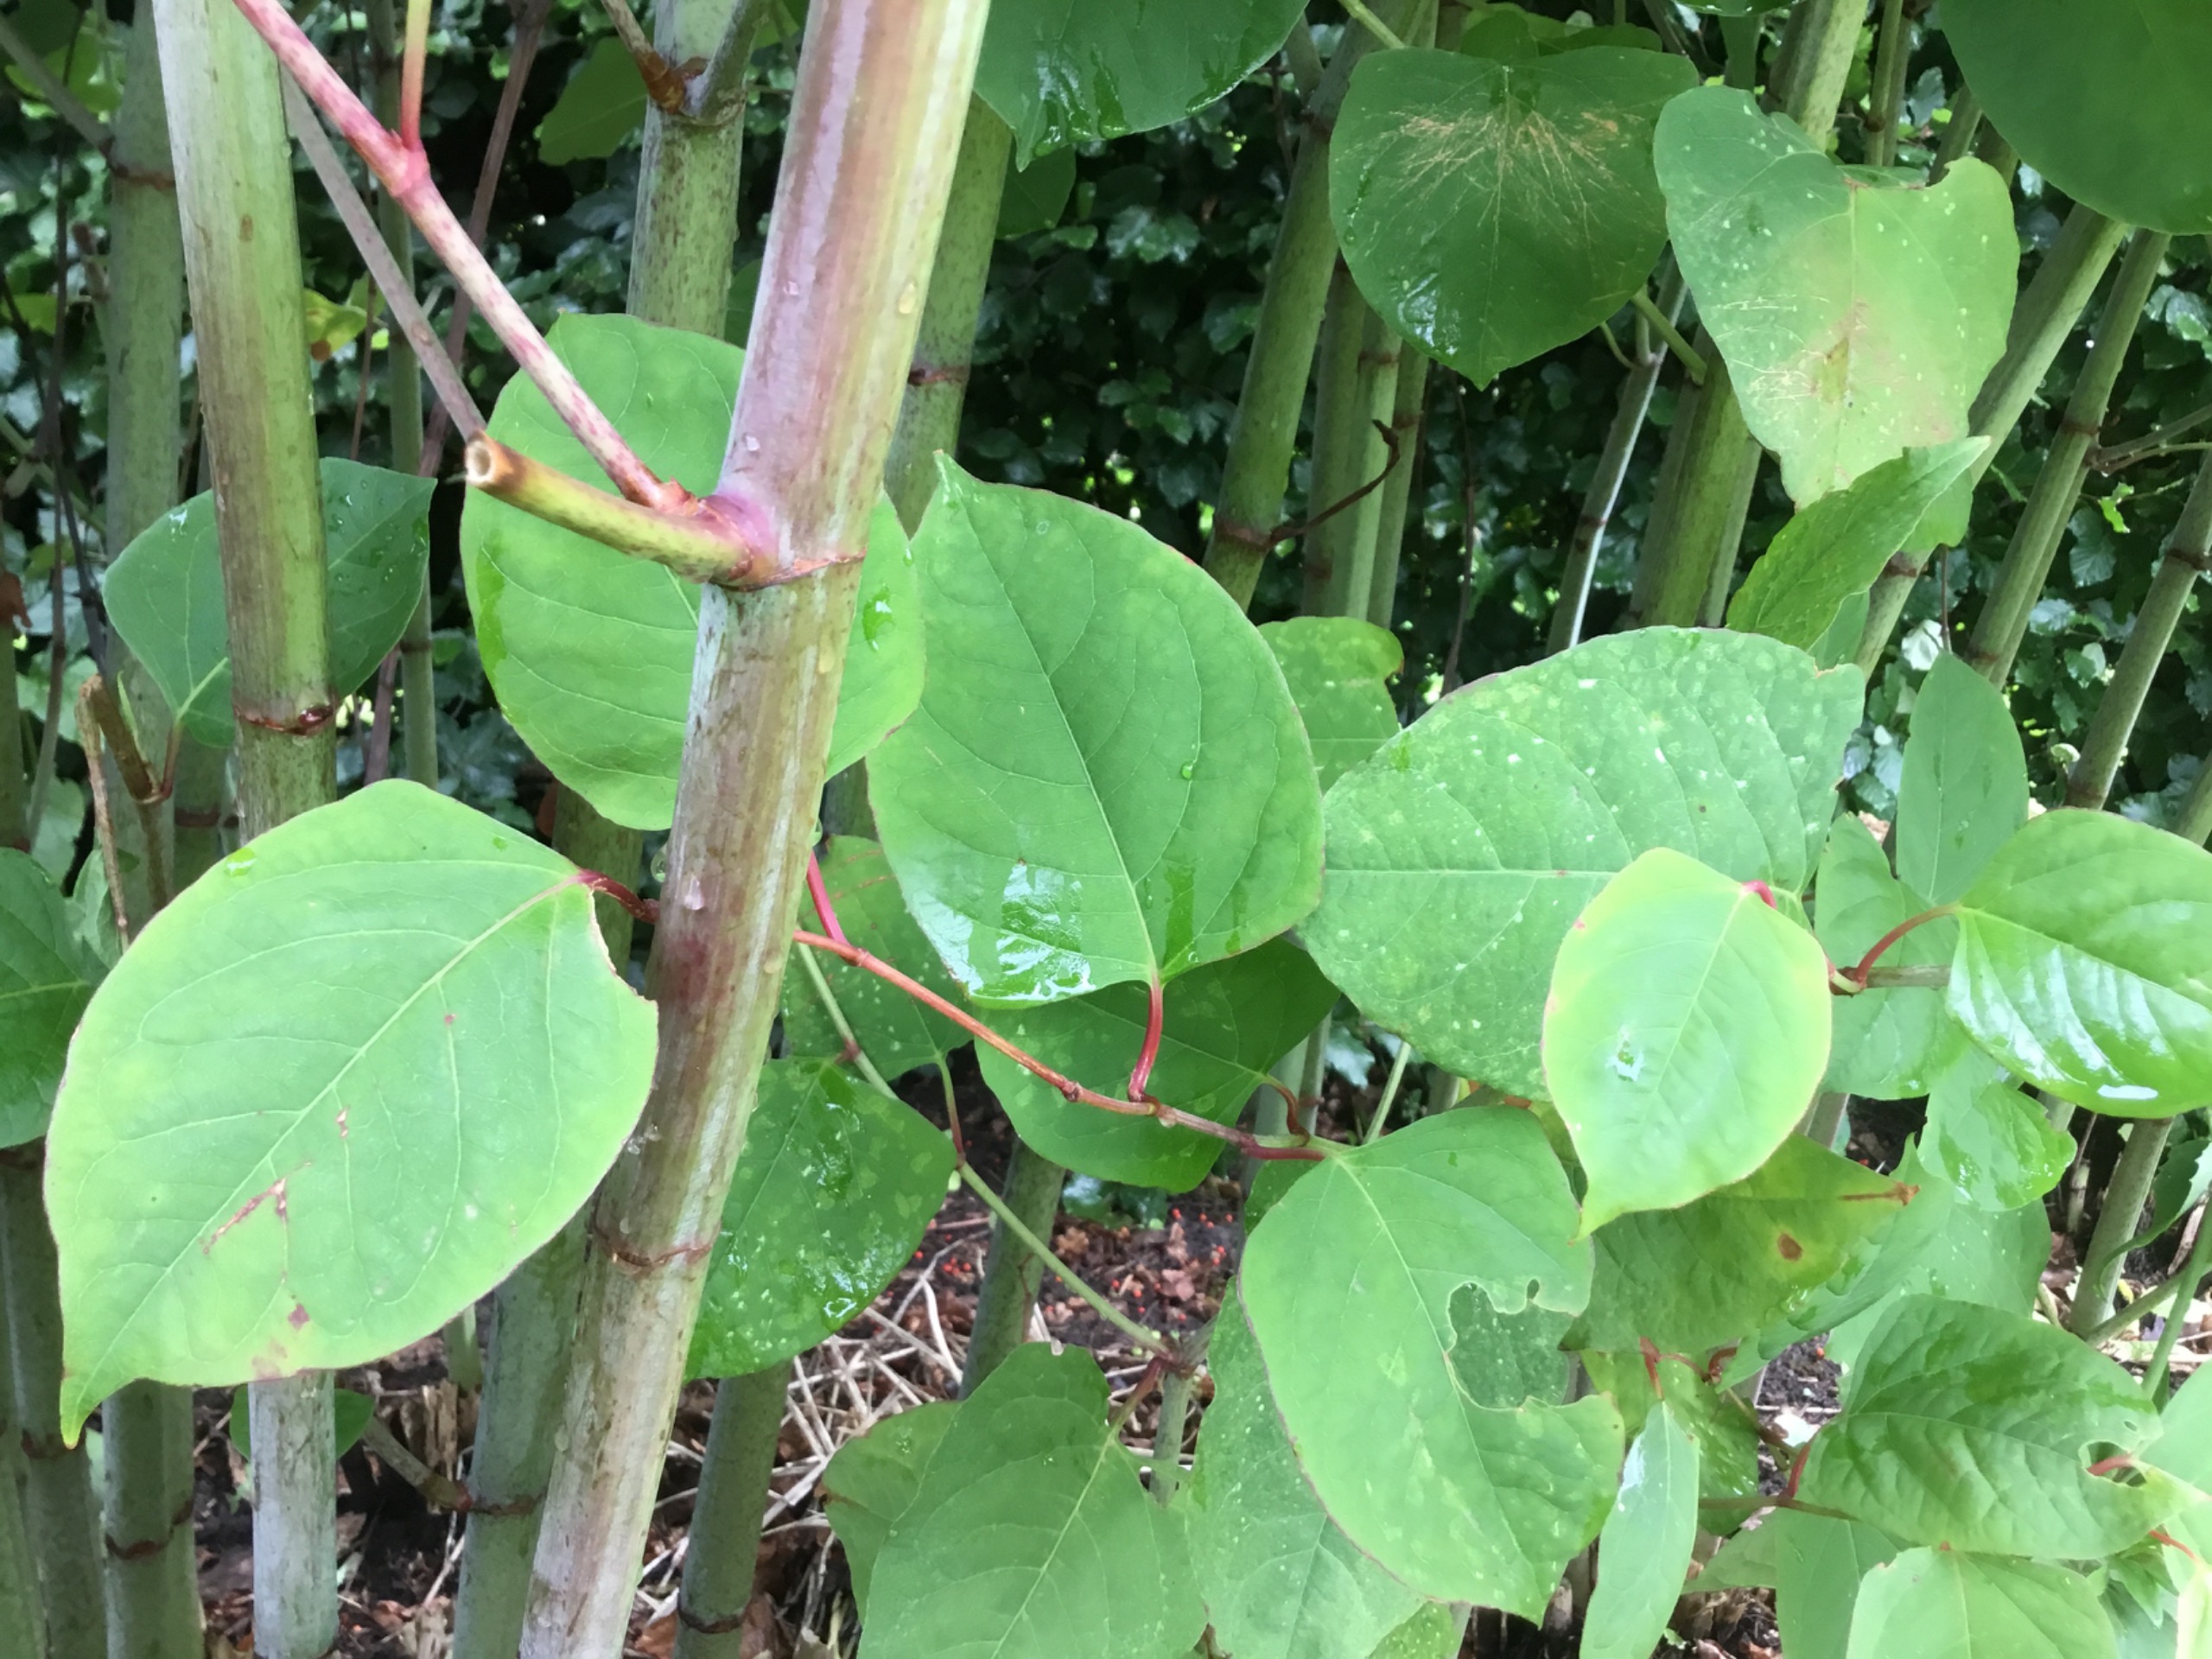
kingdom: Plantae
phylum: Tracheophyta
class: Magnoliopsida
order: Caryophyllales
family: Polygonaceae
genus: Reynoutria
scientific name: Reynoutria japonica
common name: Japan-pileurt
